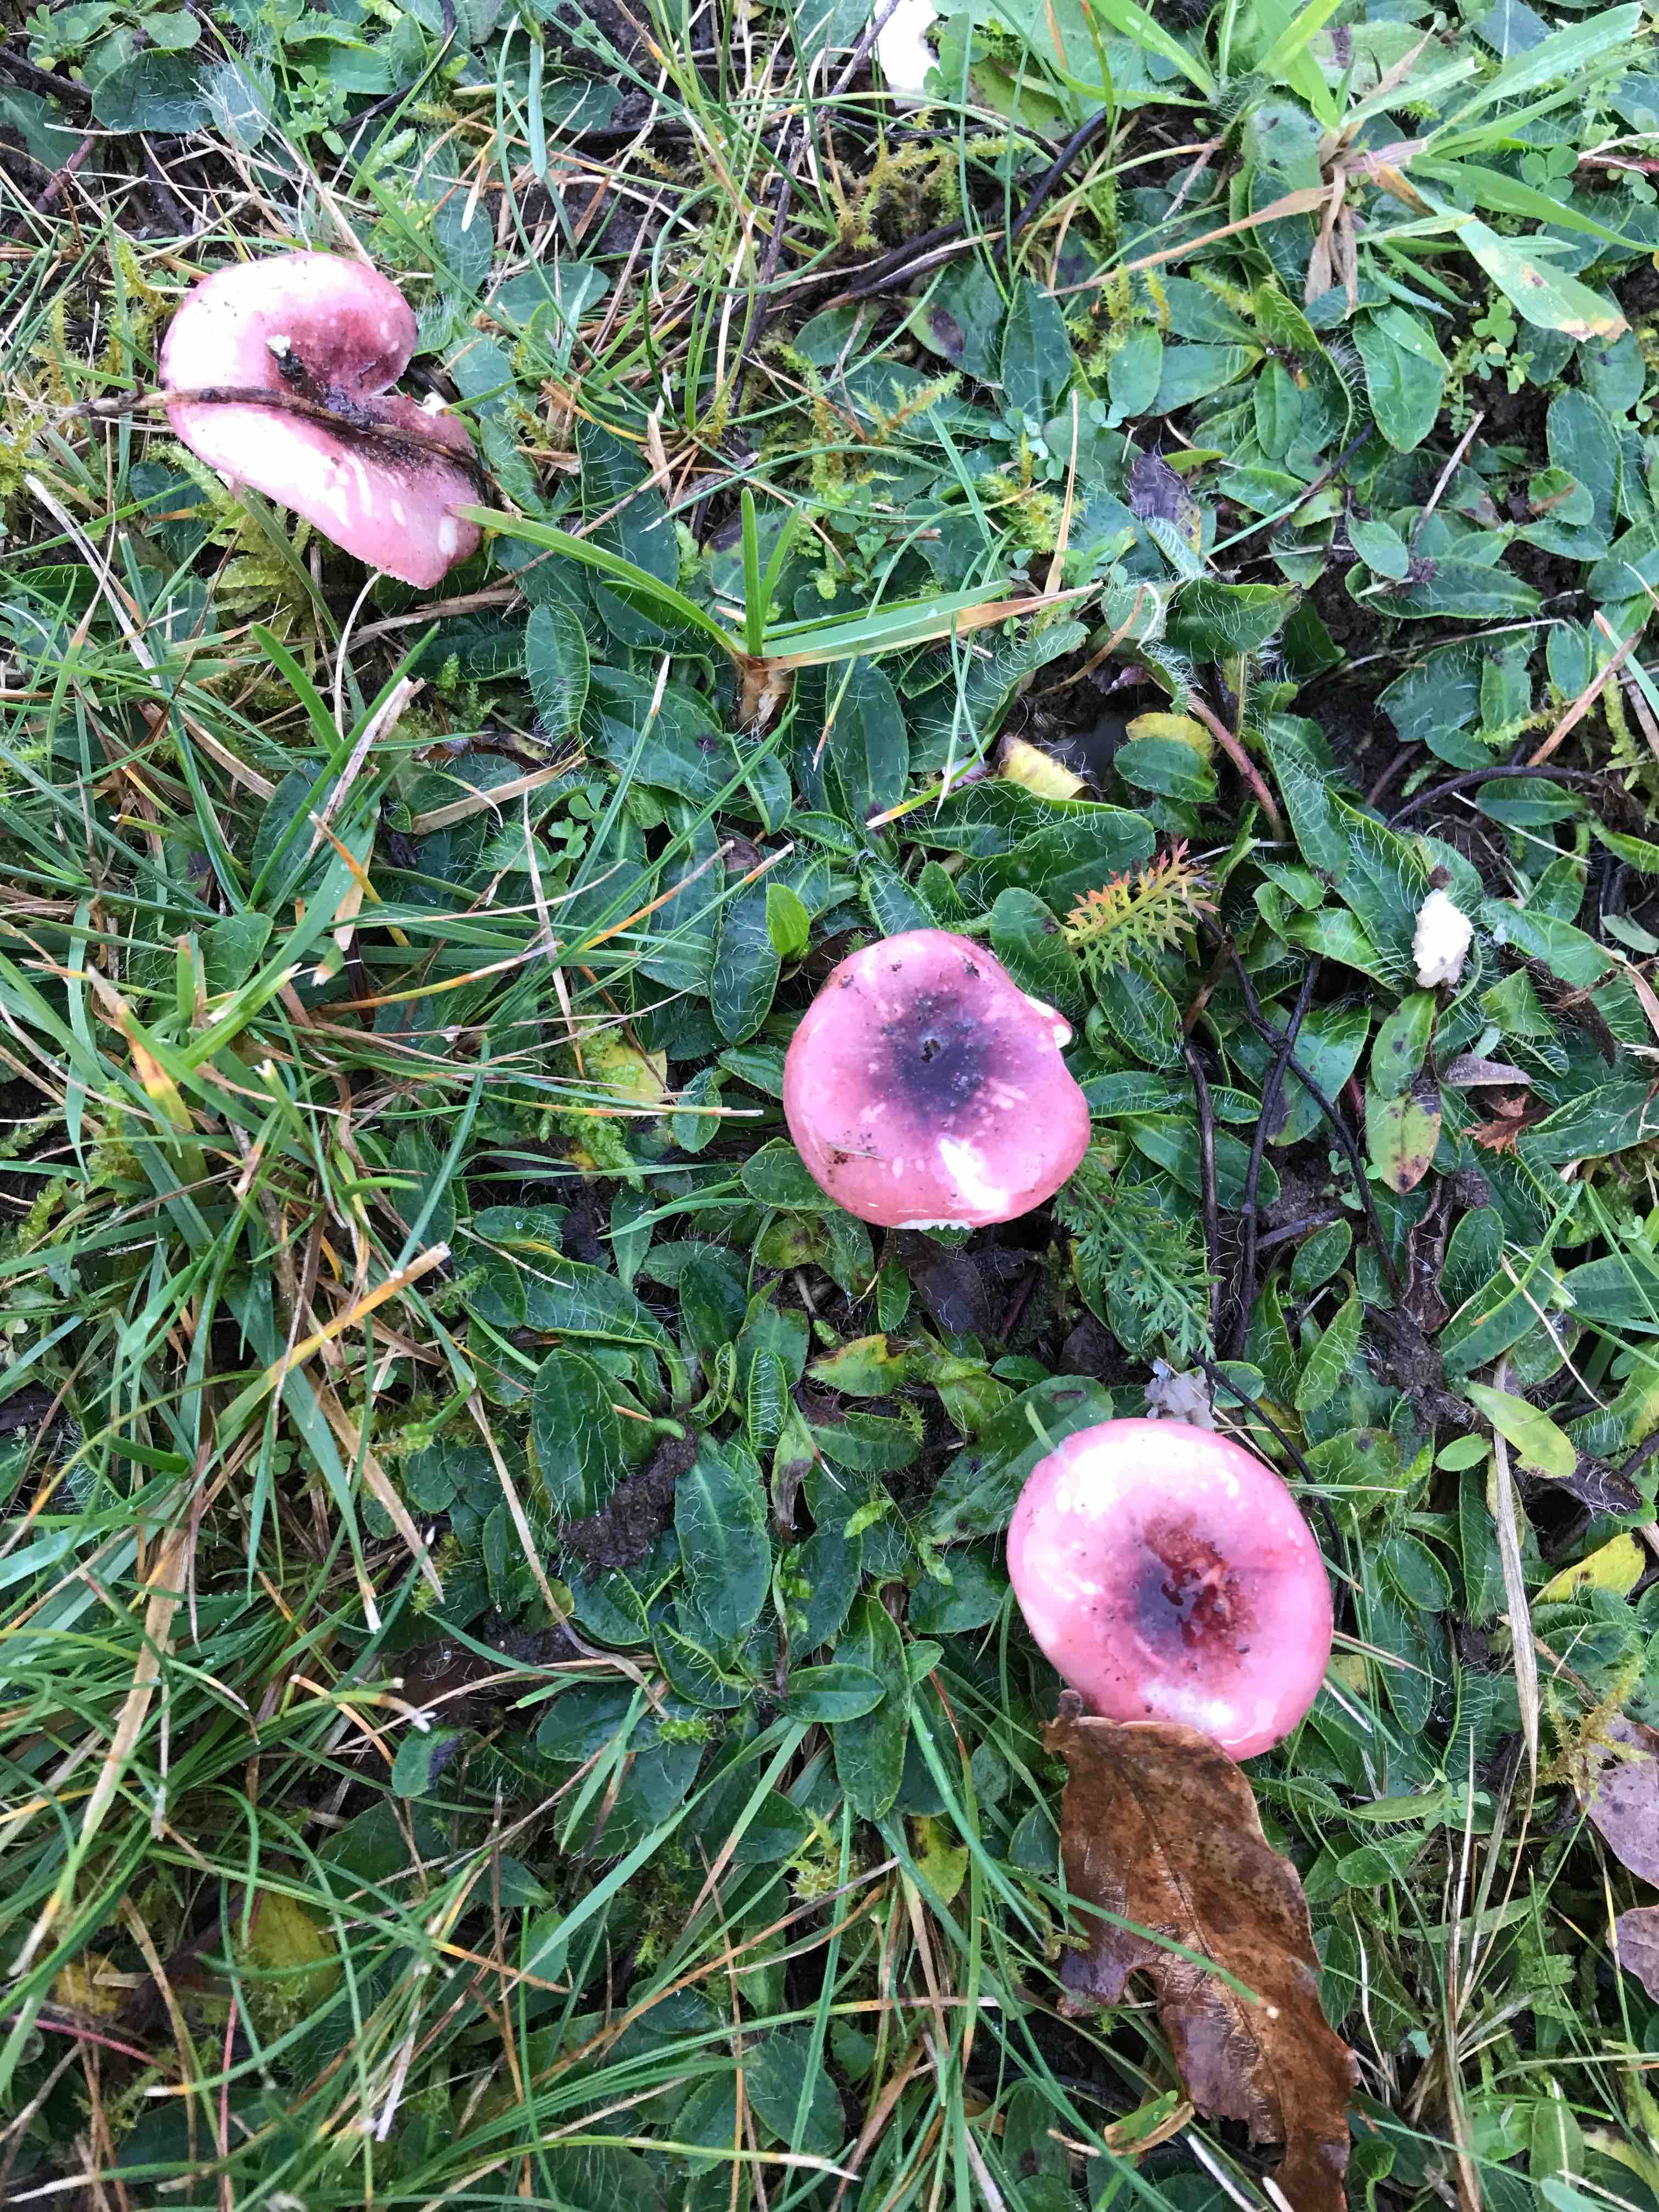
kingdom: Fungi
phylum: Basidiomycota
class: Agaricomycetes
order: Russulales
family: Russulaceae
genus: Russula
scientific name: Russula fragilis
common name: Fragile brittlegill
